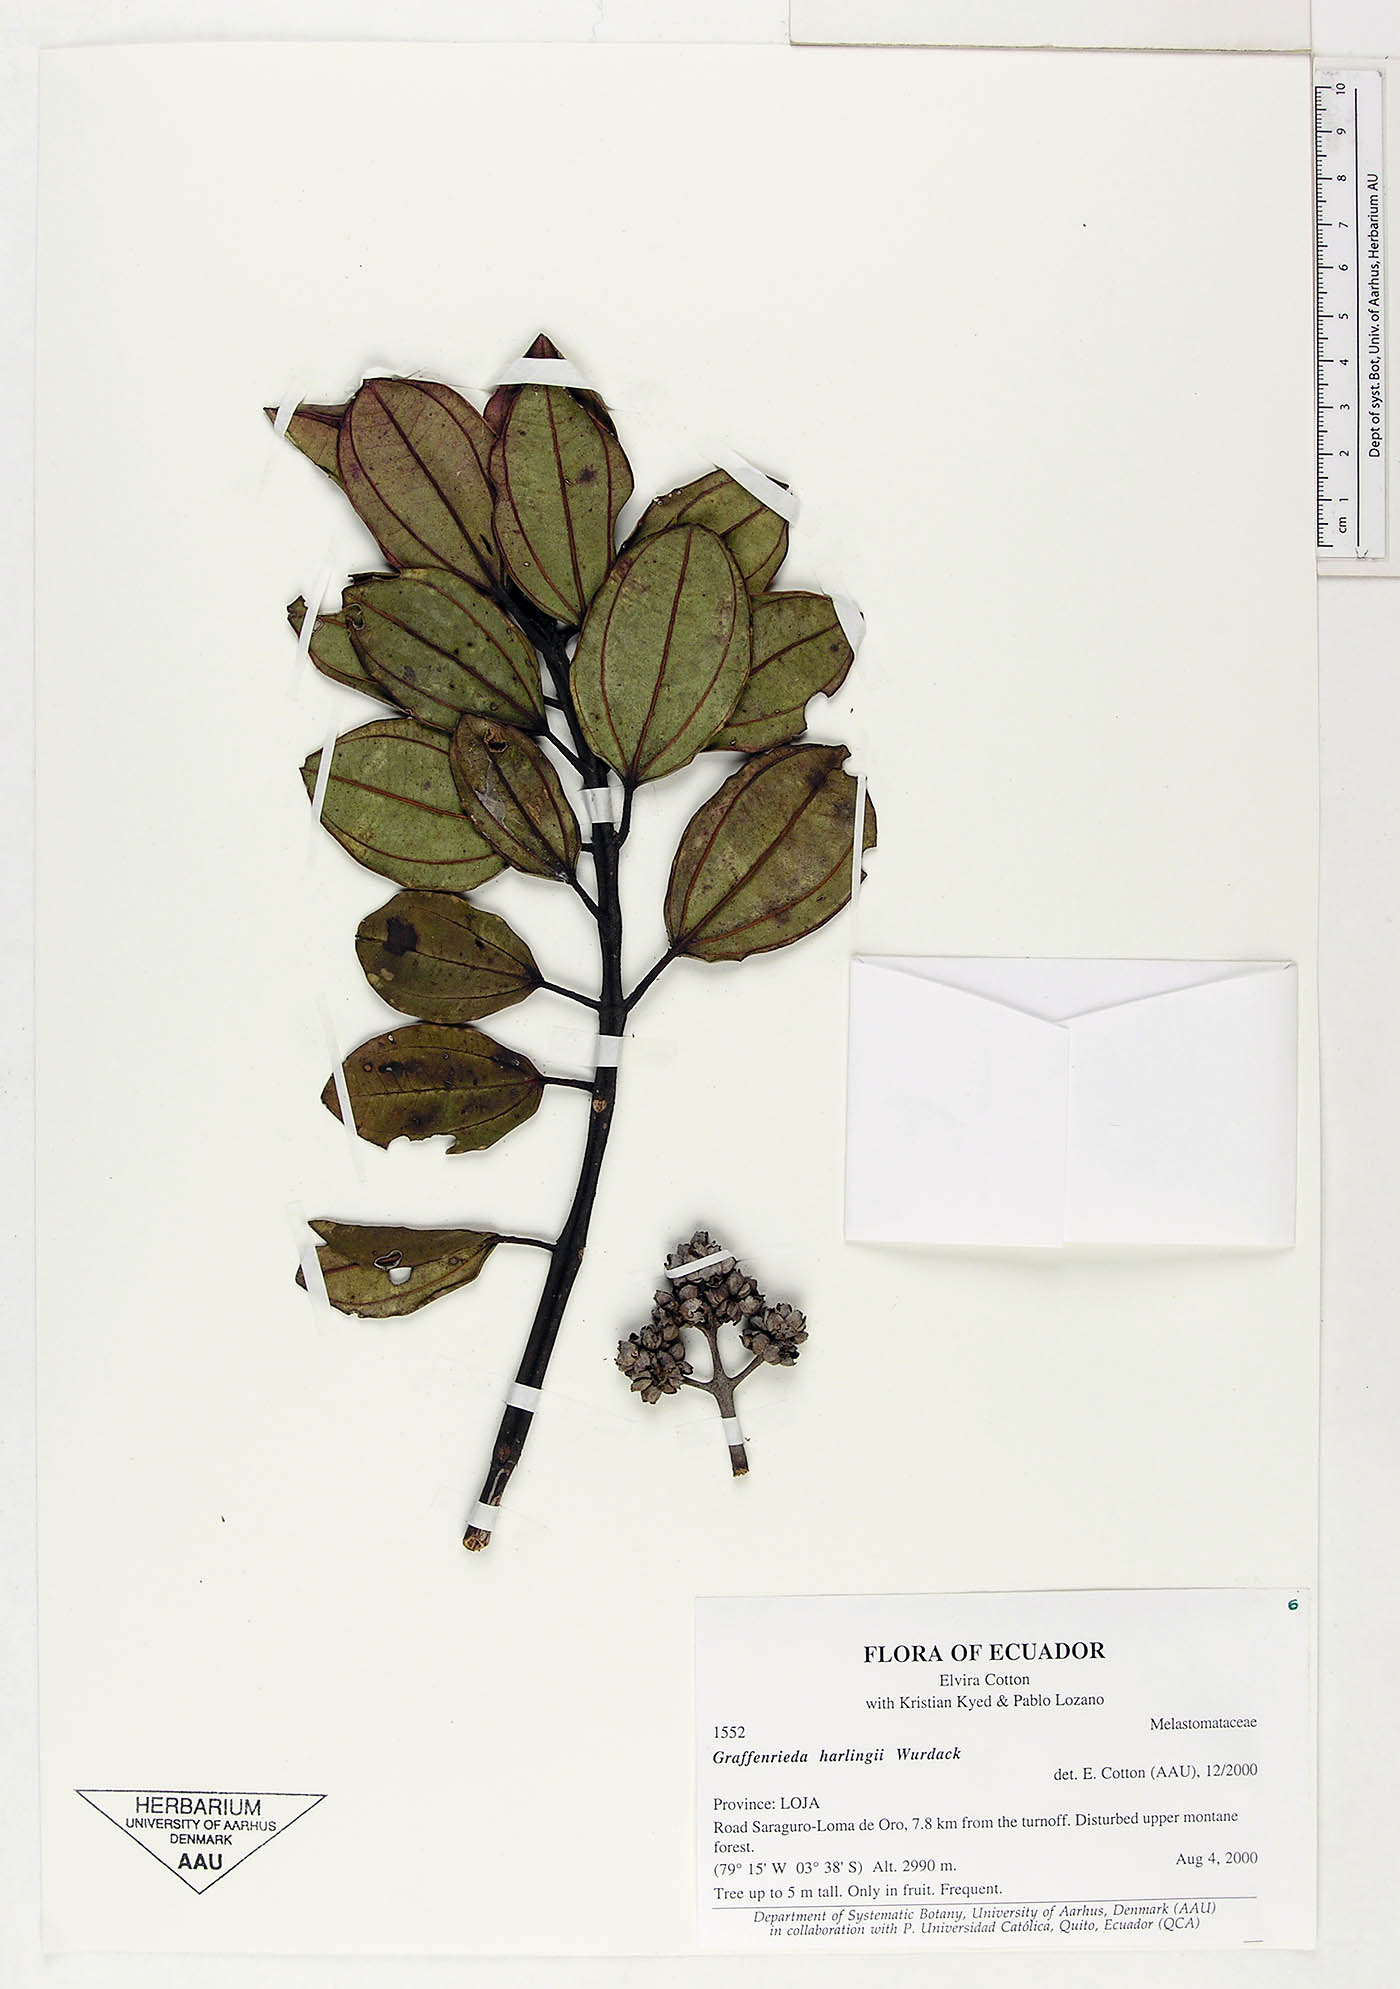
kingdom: Plantae
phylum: Tracheophyta
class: Magnoliopsida
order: Myrtales
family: Melastomataceae
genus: Graffenrieda
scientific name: Graffenrieda harlingii
